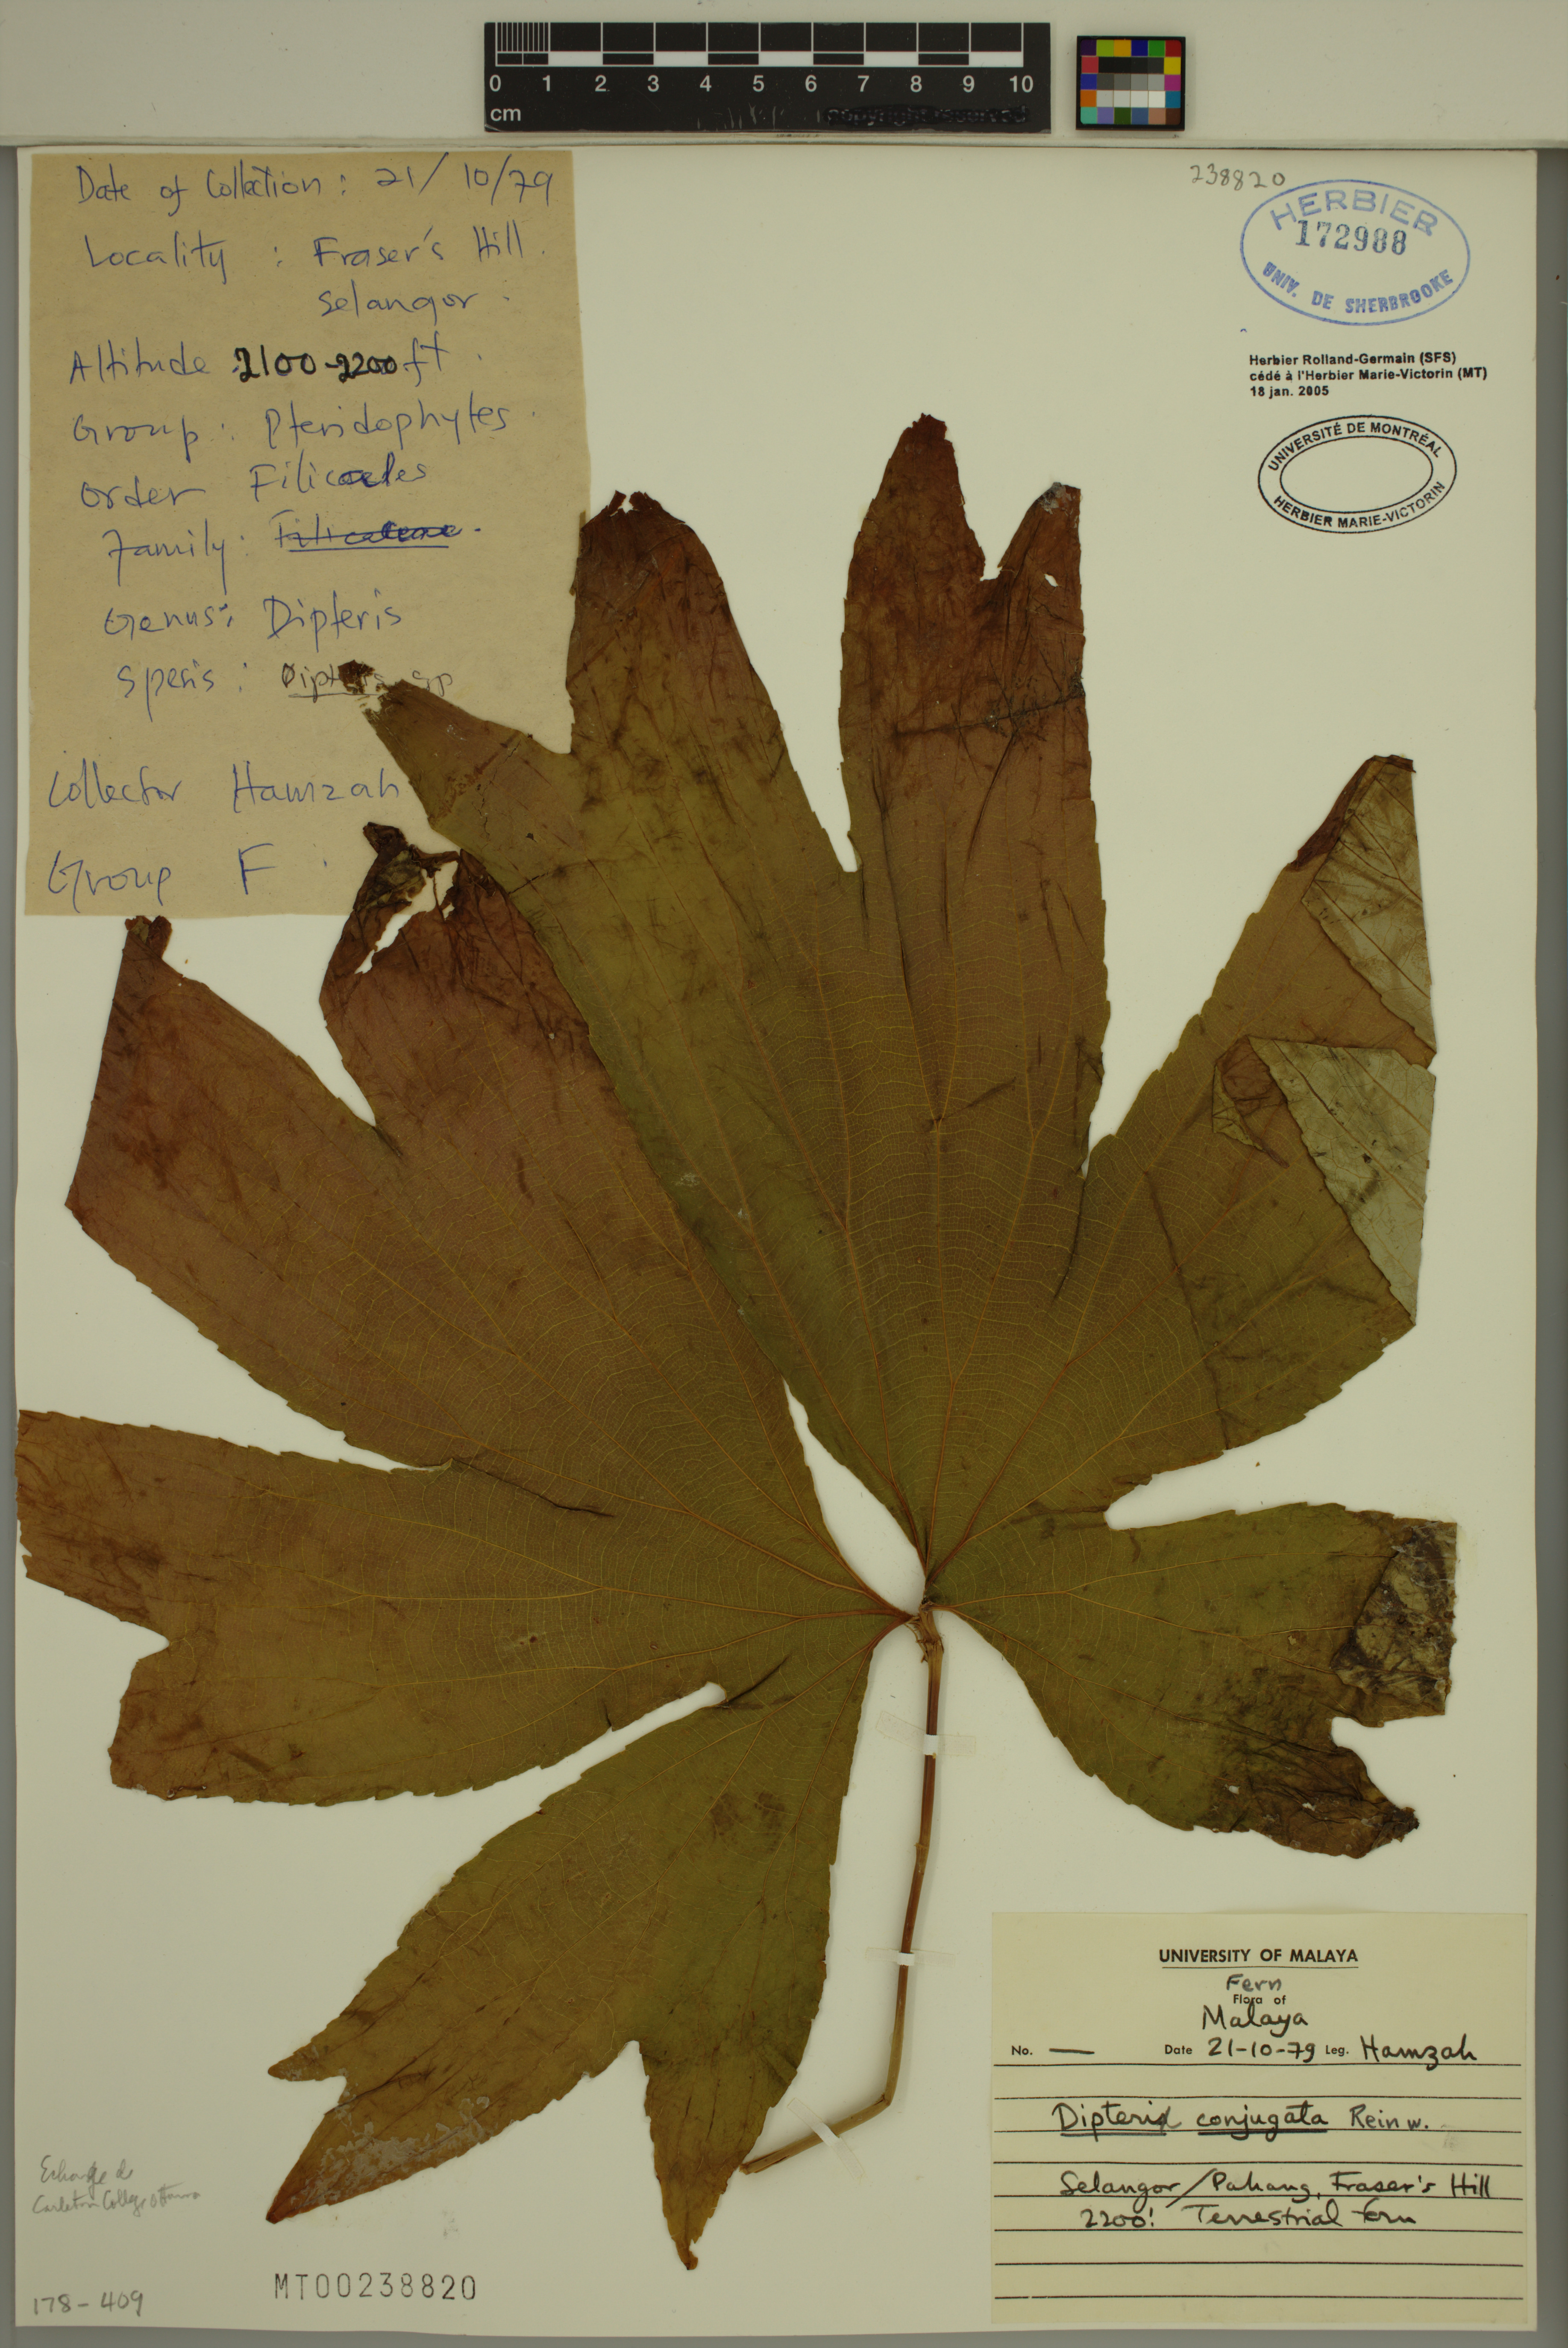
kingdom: Plantae
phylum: Tracheophyta
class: Polypodiopsida
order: Gleicheniales
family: Dipteridaceae
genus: Dipteris
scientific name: Dipteris conjugata
